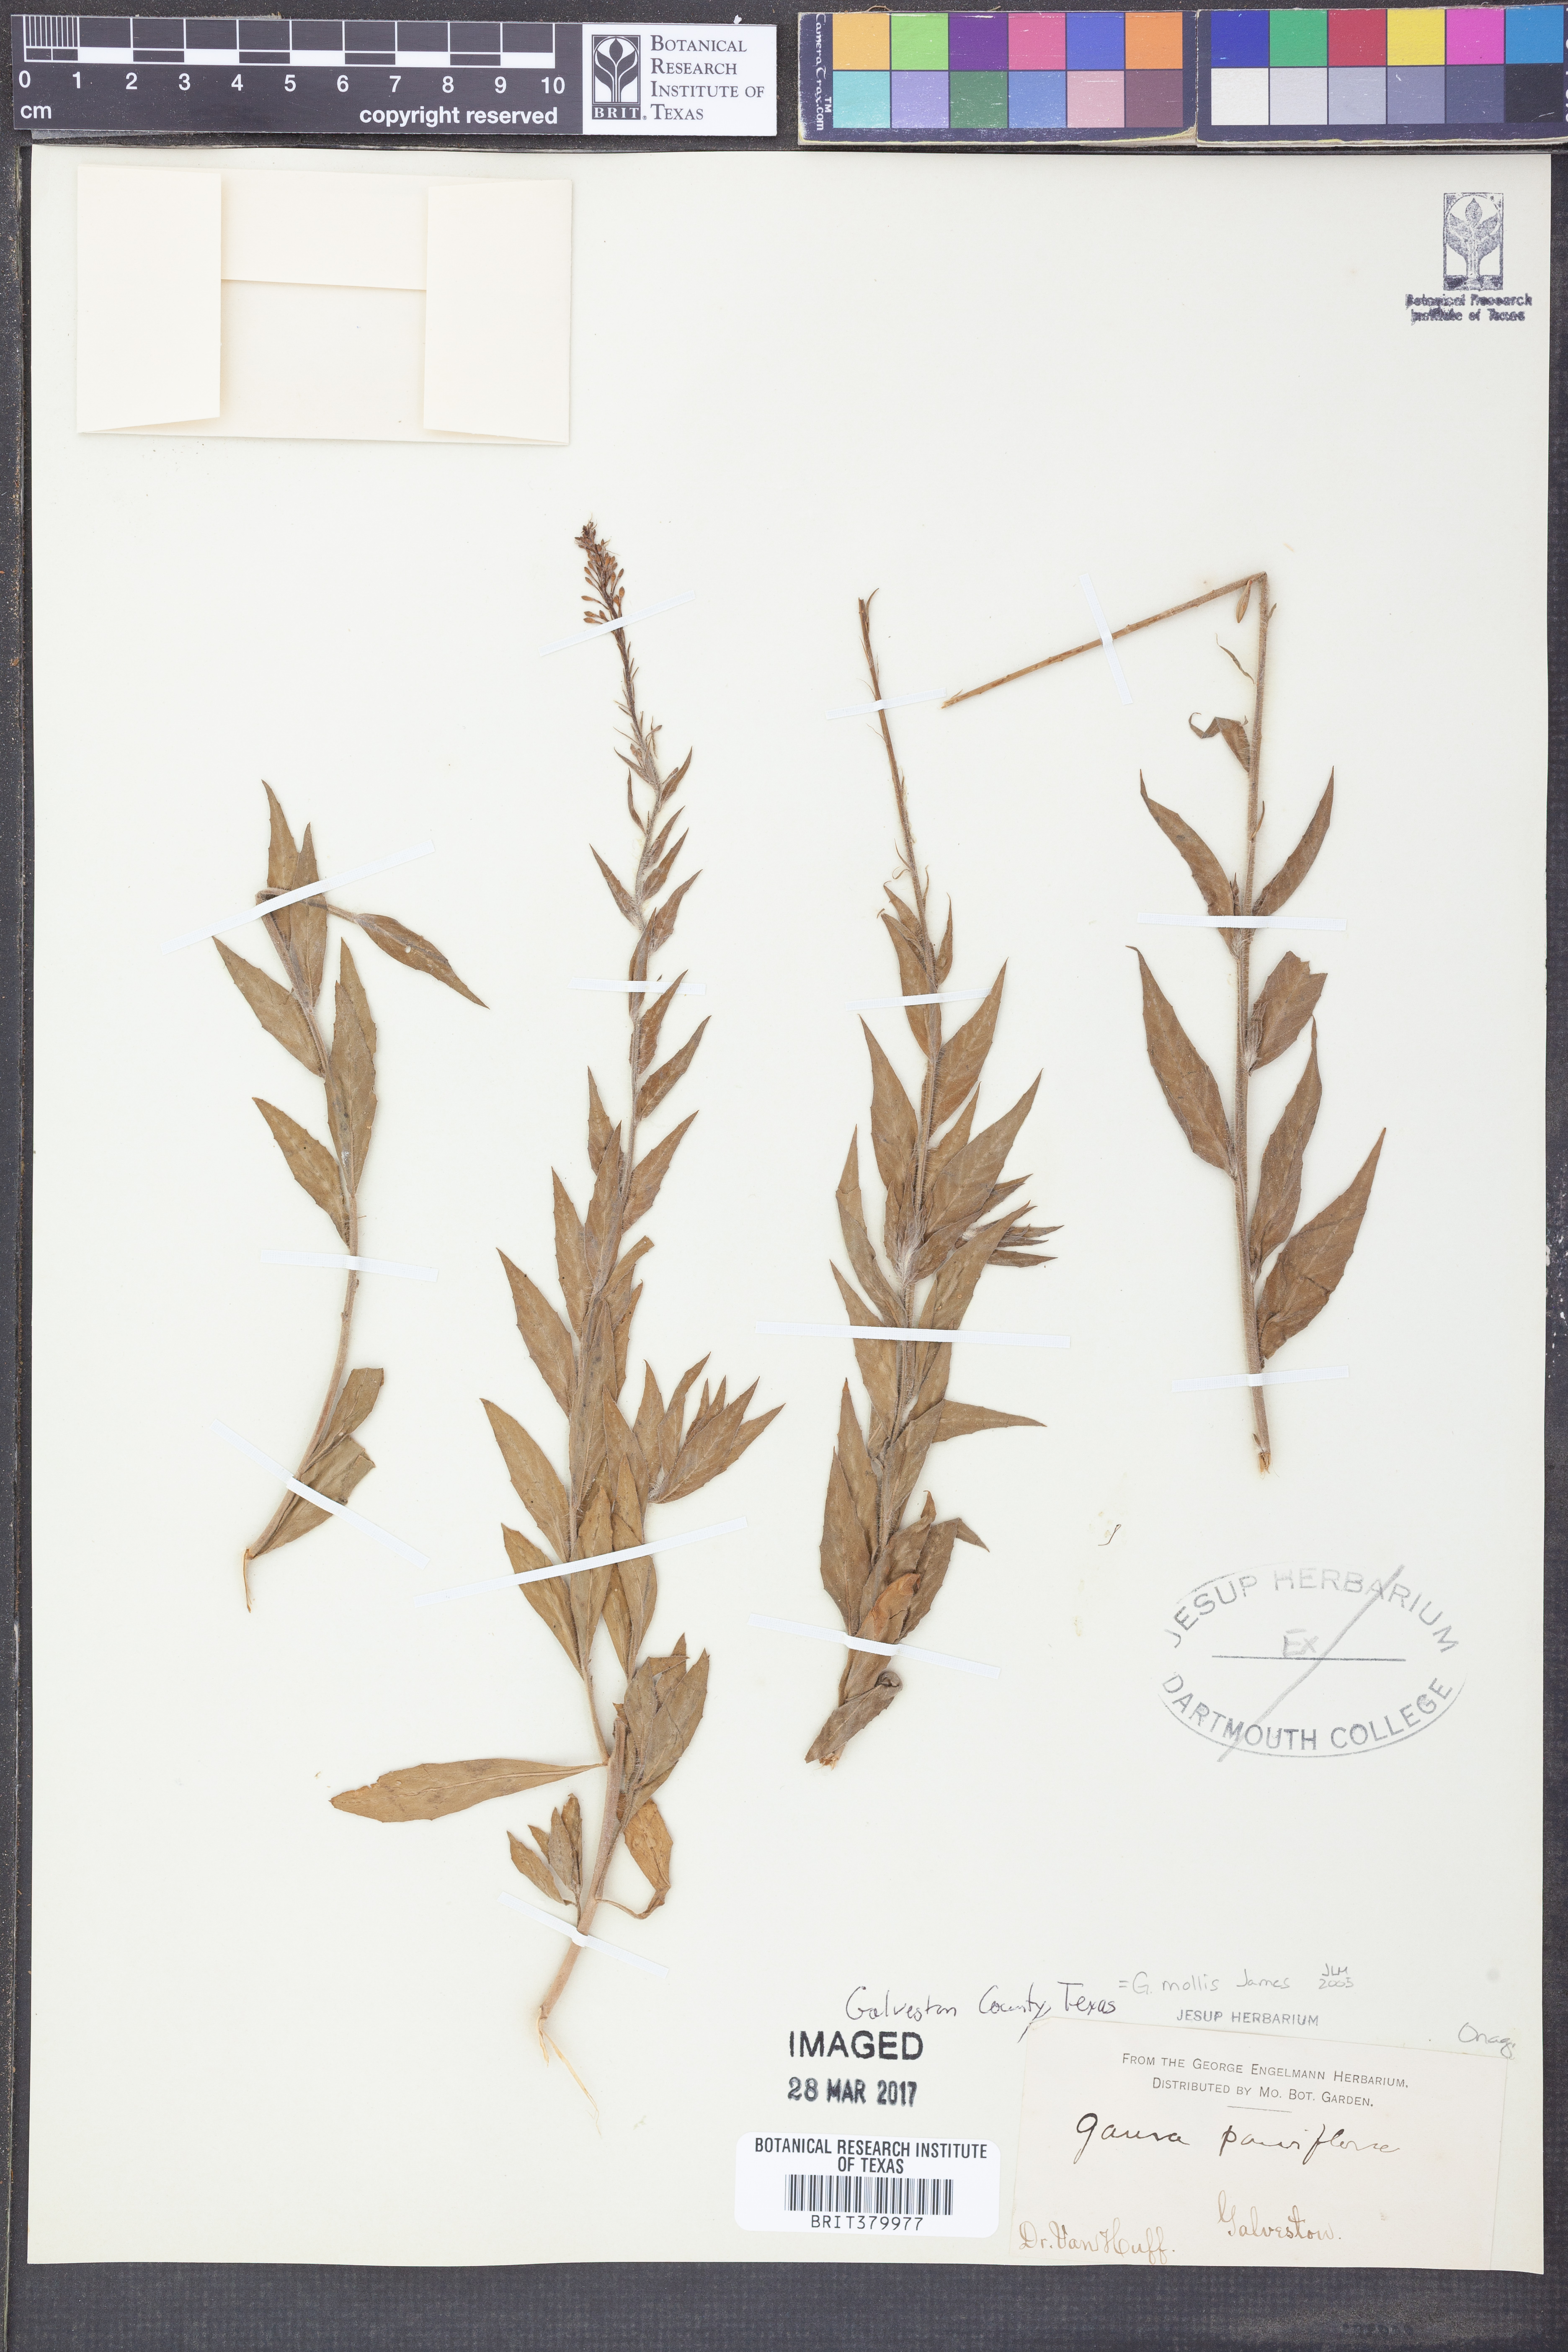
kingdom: Plantae
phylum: Tracheophyta
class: Magnoliopsida
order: Myrtales
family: Onagraceae
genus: Oenothera
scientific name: Oenothera curtiflora
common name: Velvetweed
